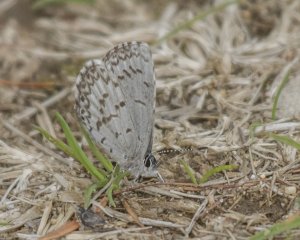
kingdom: Animalia
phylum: Arthropoda
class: Insecta
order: Lepidoptera
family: Lycaenidae
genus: Celastrina
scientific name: Celastrina
